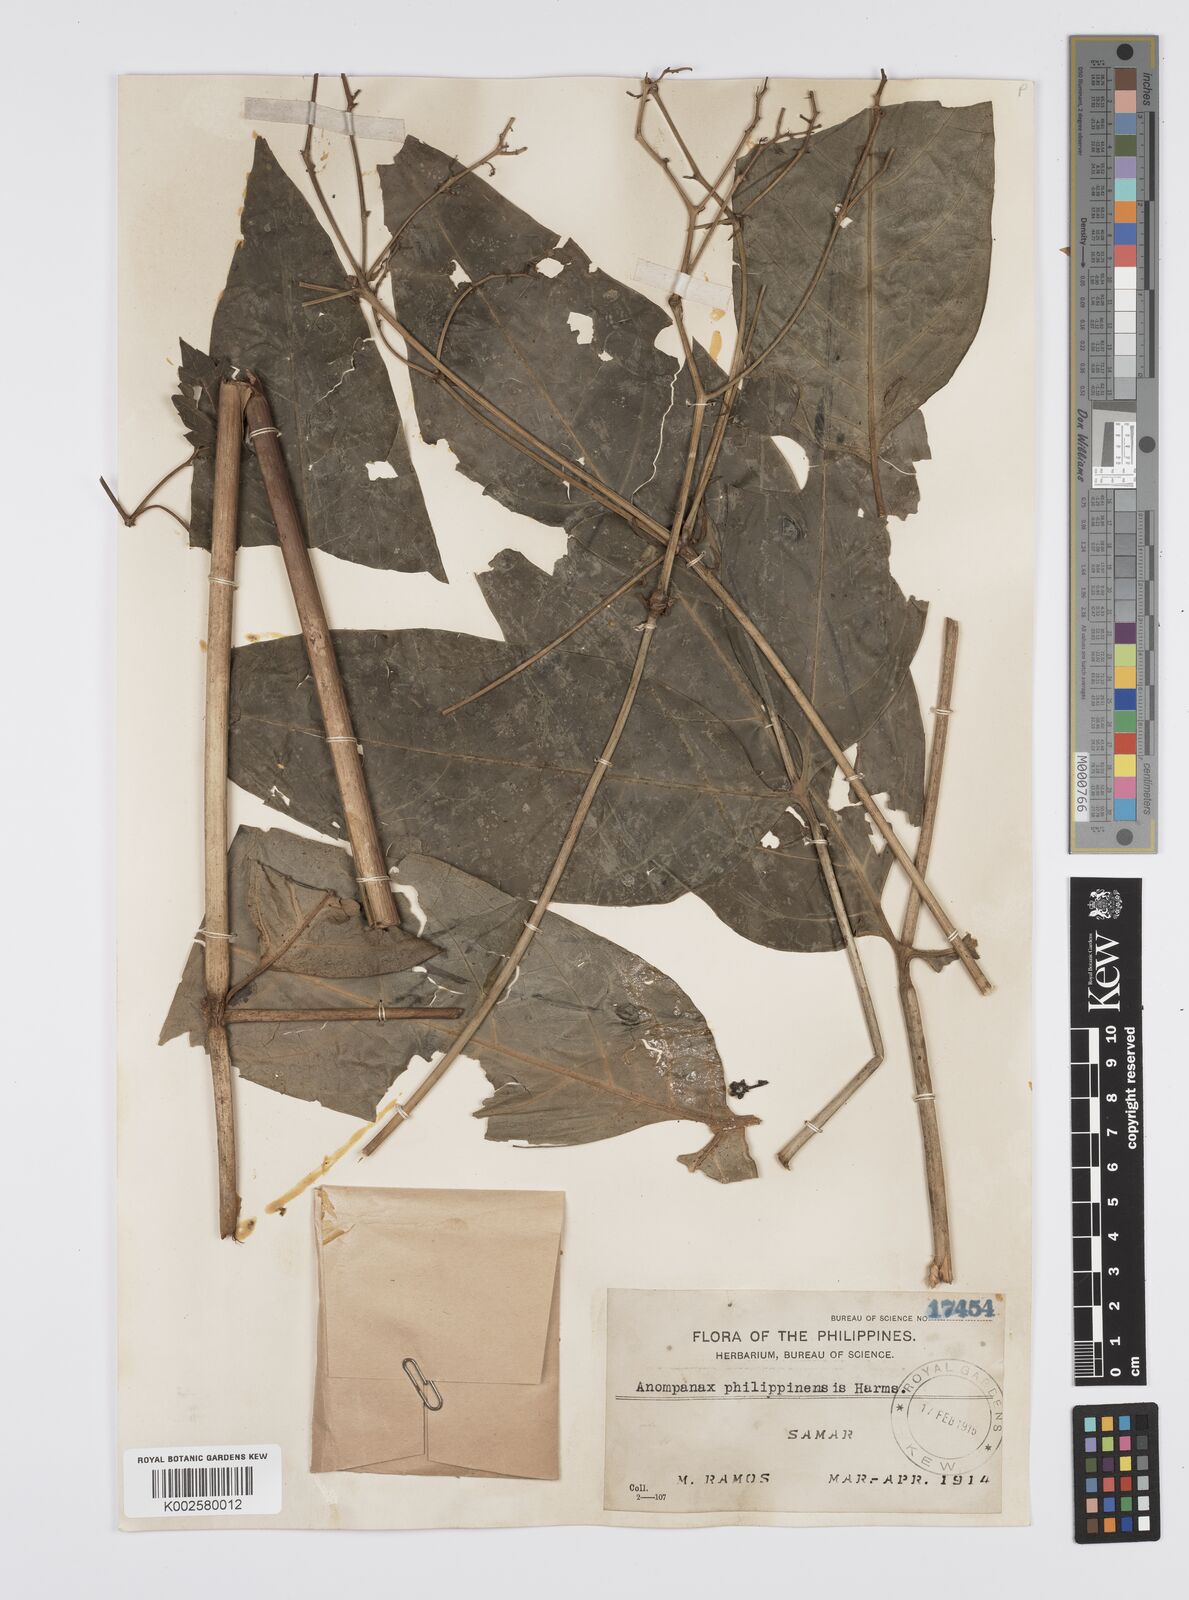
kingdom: Plantae
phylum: Tracheophyta
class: Magnoliopsida
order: Apiales
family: Apiaceae
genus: Mackinlaya
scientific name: Mackinlaya celebica
